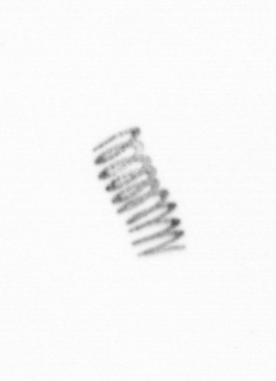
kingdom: Chromista
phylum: Ochrophyta
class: Bacillariophyceae
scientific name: Bacillariophyceae
